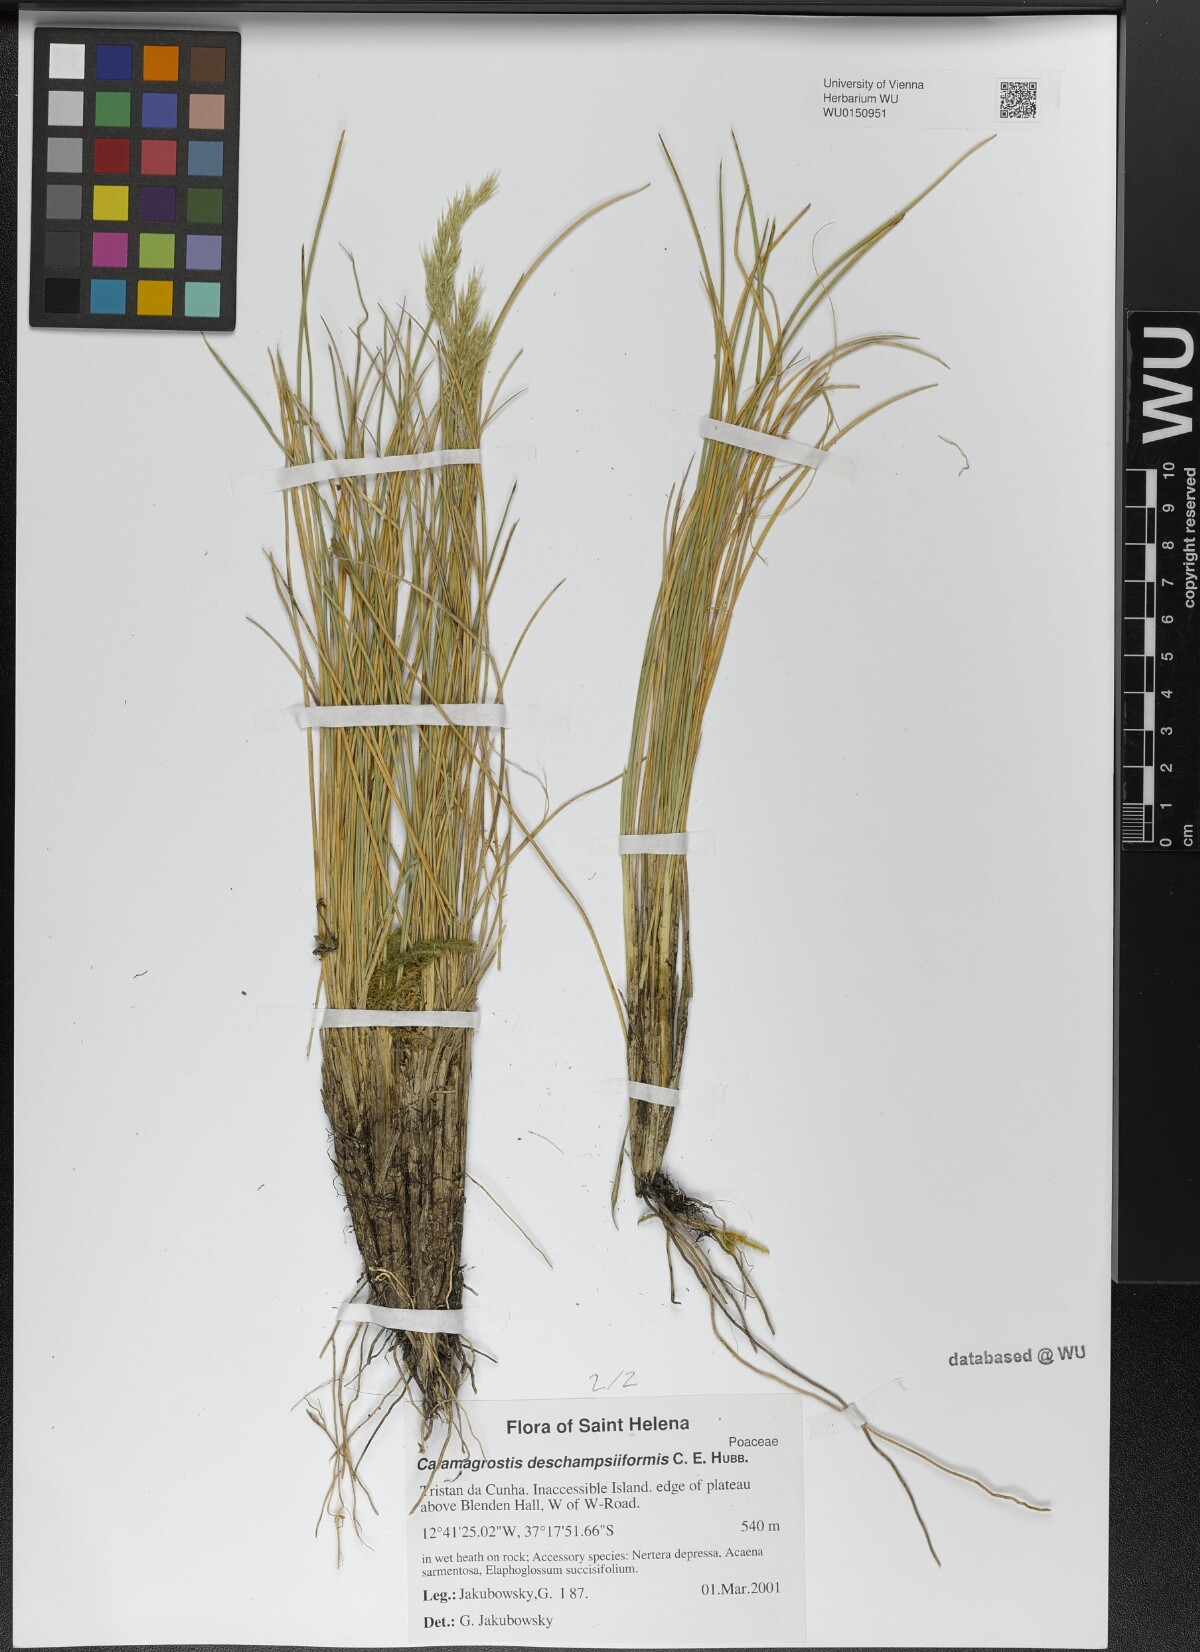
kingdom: Plantae
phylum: Tracheophyta
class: Liliopsida
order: Poales
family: Poaceae
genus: Calamagrostis
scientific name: Calamagrostis deschampsiiformis
